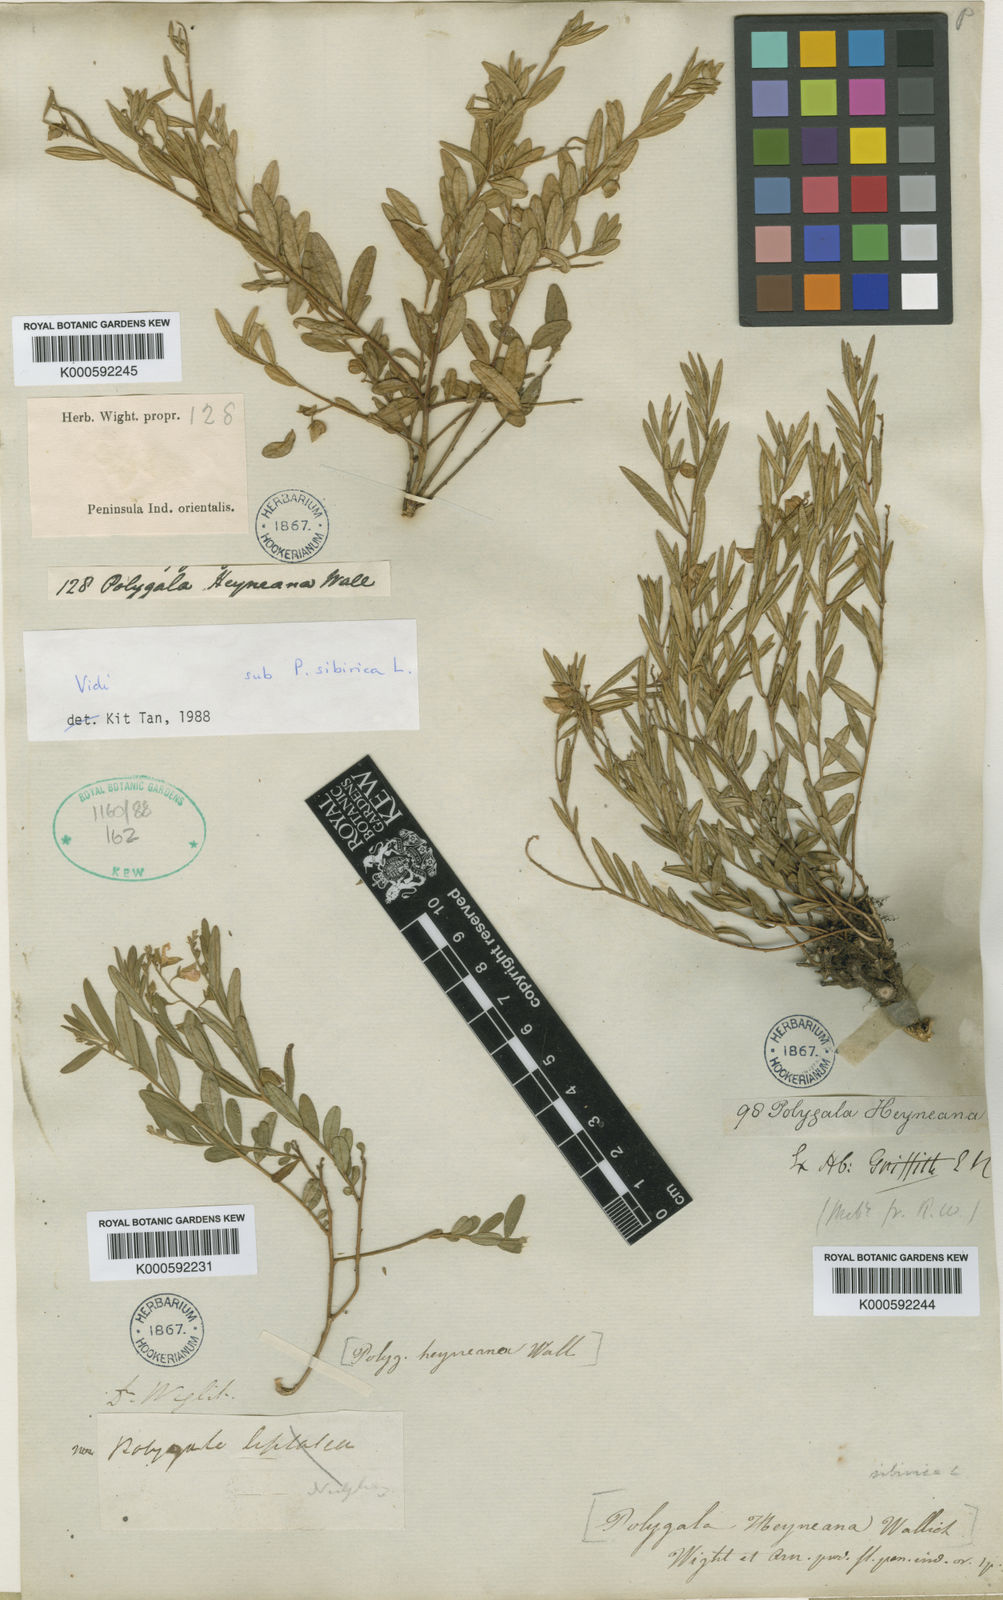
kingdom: Plantae
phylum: Tracheophyta
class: Magnoliopsida
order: Fabales
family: Polygalaceae
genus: Polygala
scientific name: Polygala sibirica
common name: Siberian polygala
